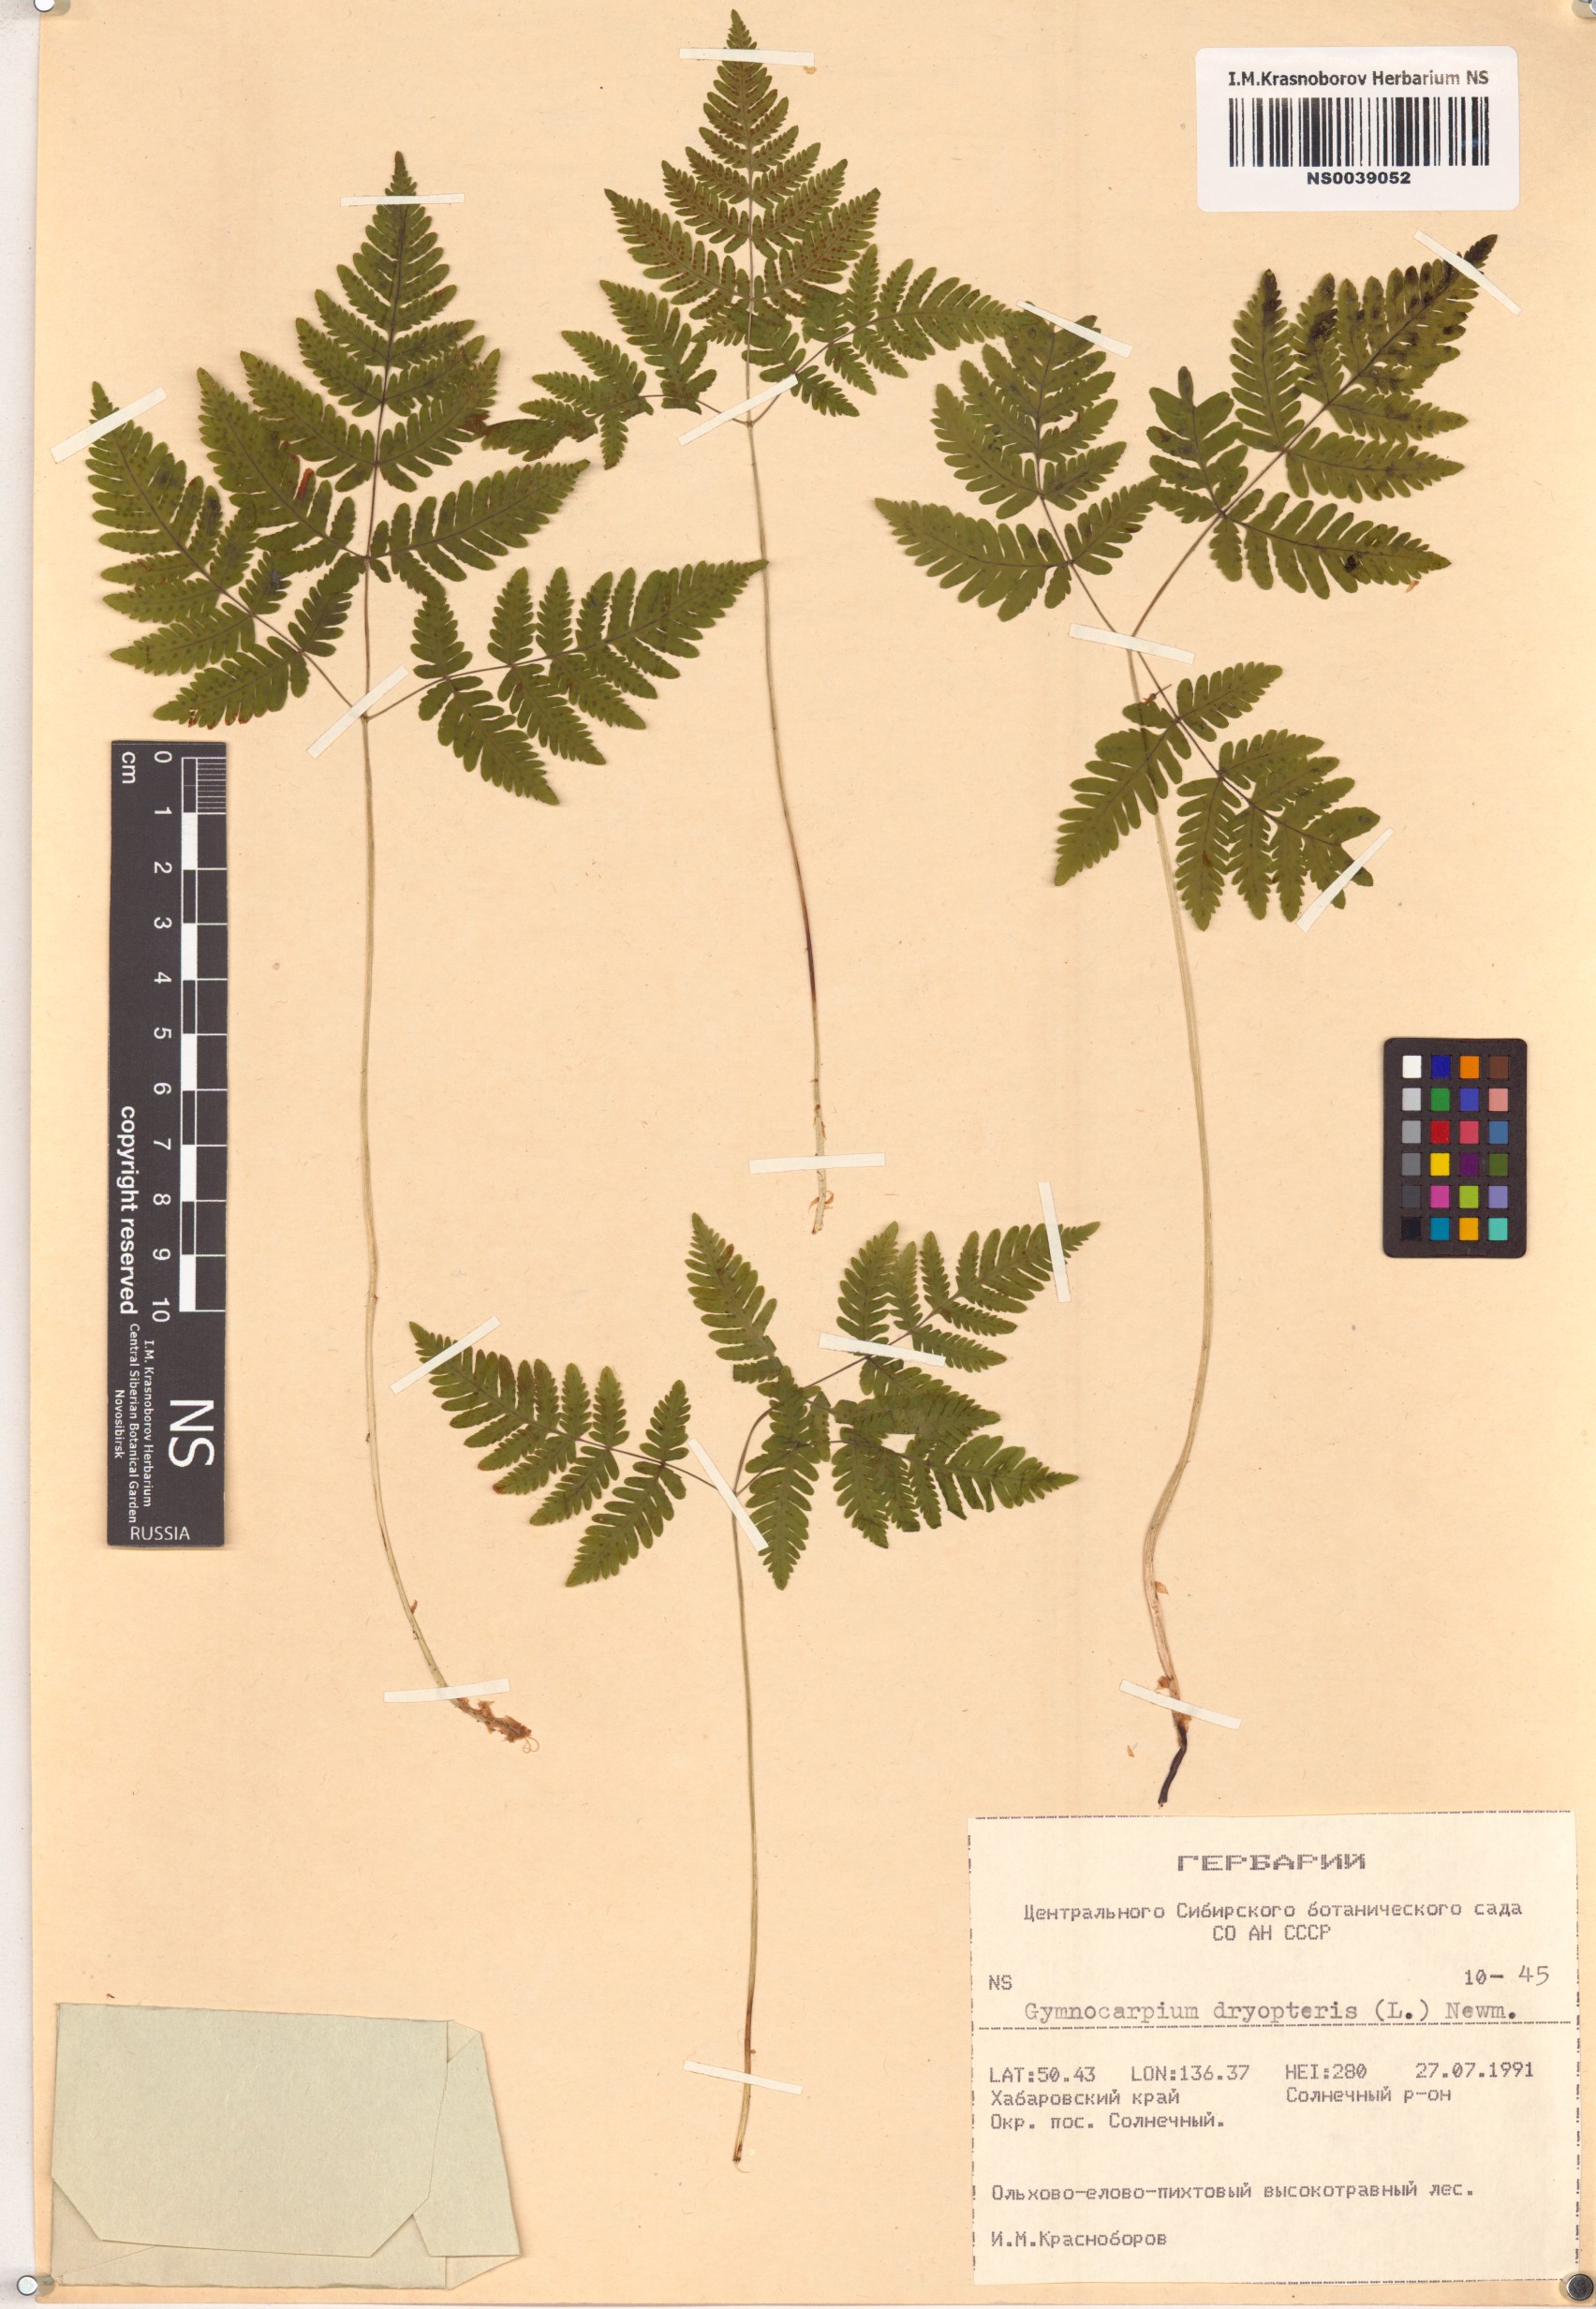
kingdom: Plantae
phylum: Tracheophyta
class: Polypodiopsida
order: Polypodiales
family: Cystopteridaceae
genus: Gymnocarpium
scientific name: Gymnocarpium dryopteris
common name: Oak fern
